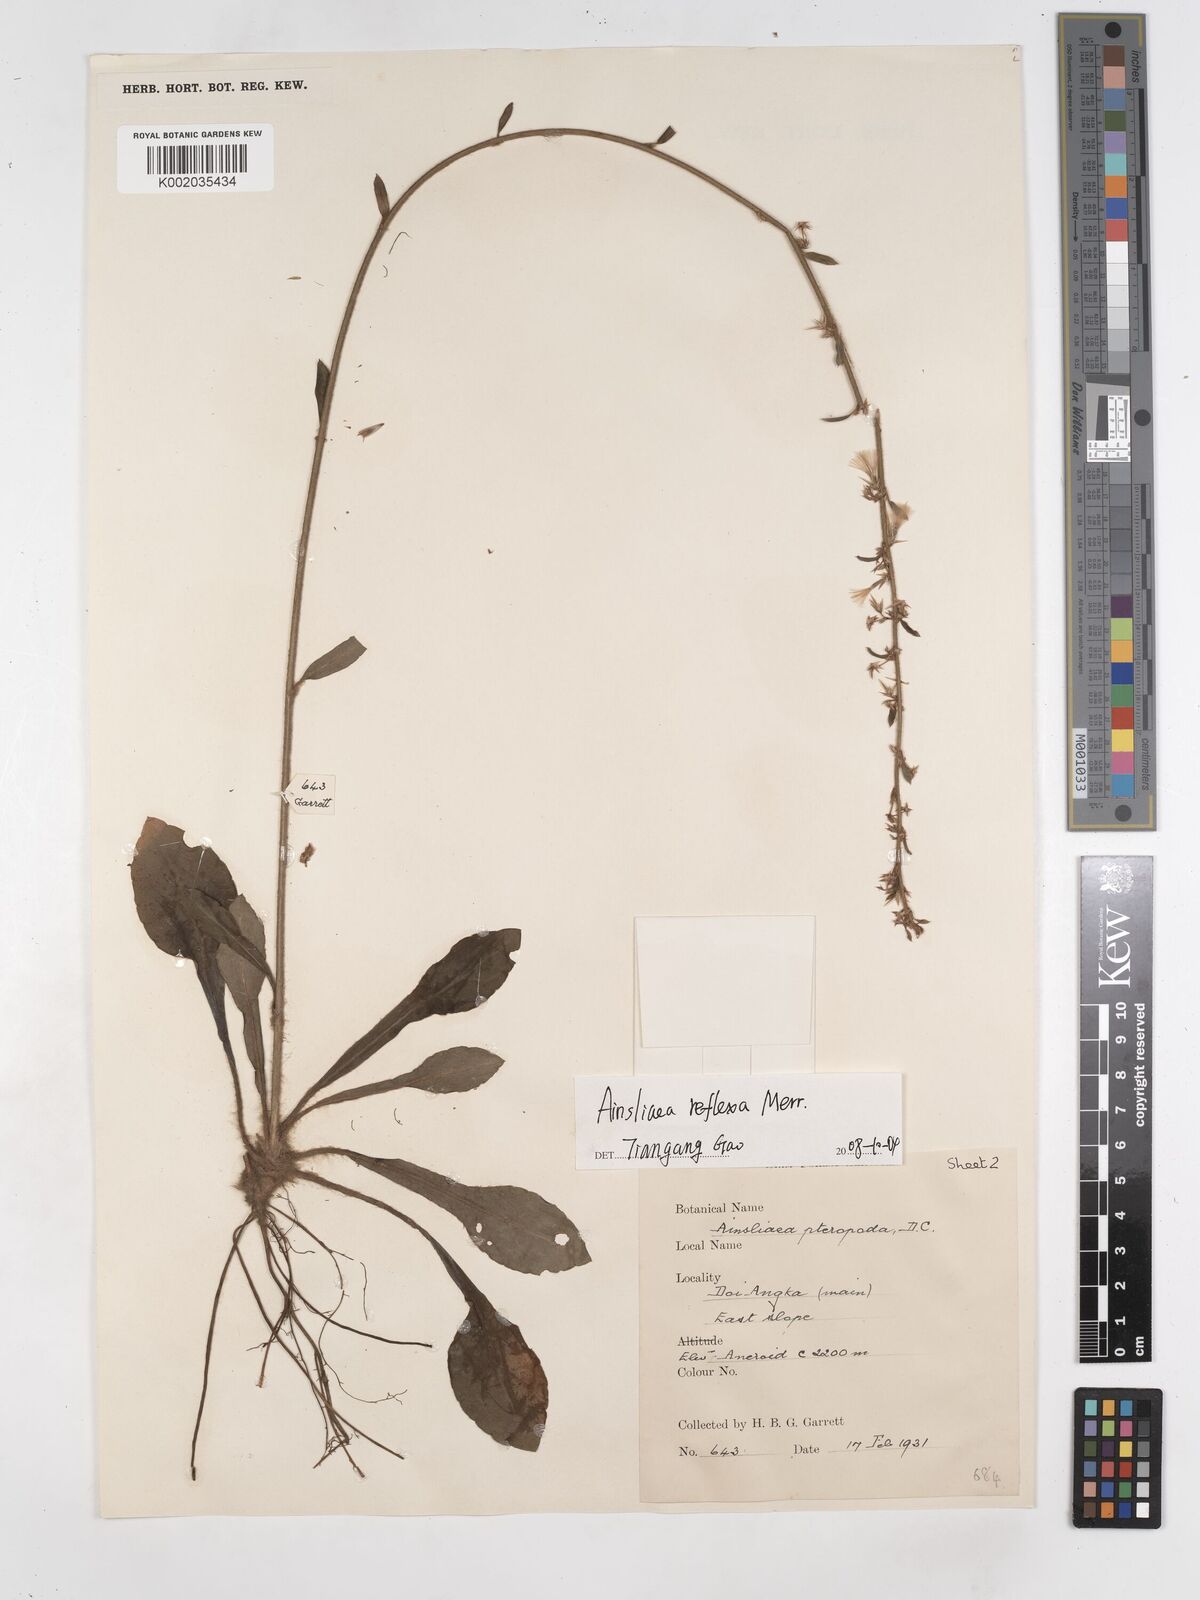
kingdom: Plantae
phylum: Tracheophyta
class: Magnoliopsida
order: Asterales
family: Asteraceae
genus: Ainsliaea
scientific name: Ainsliaea reflexa
